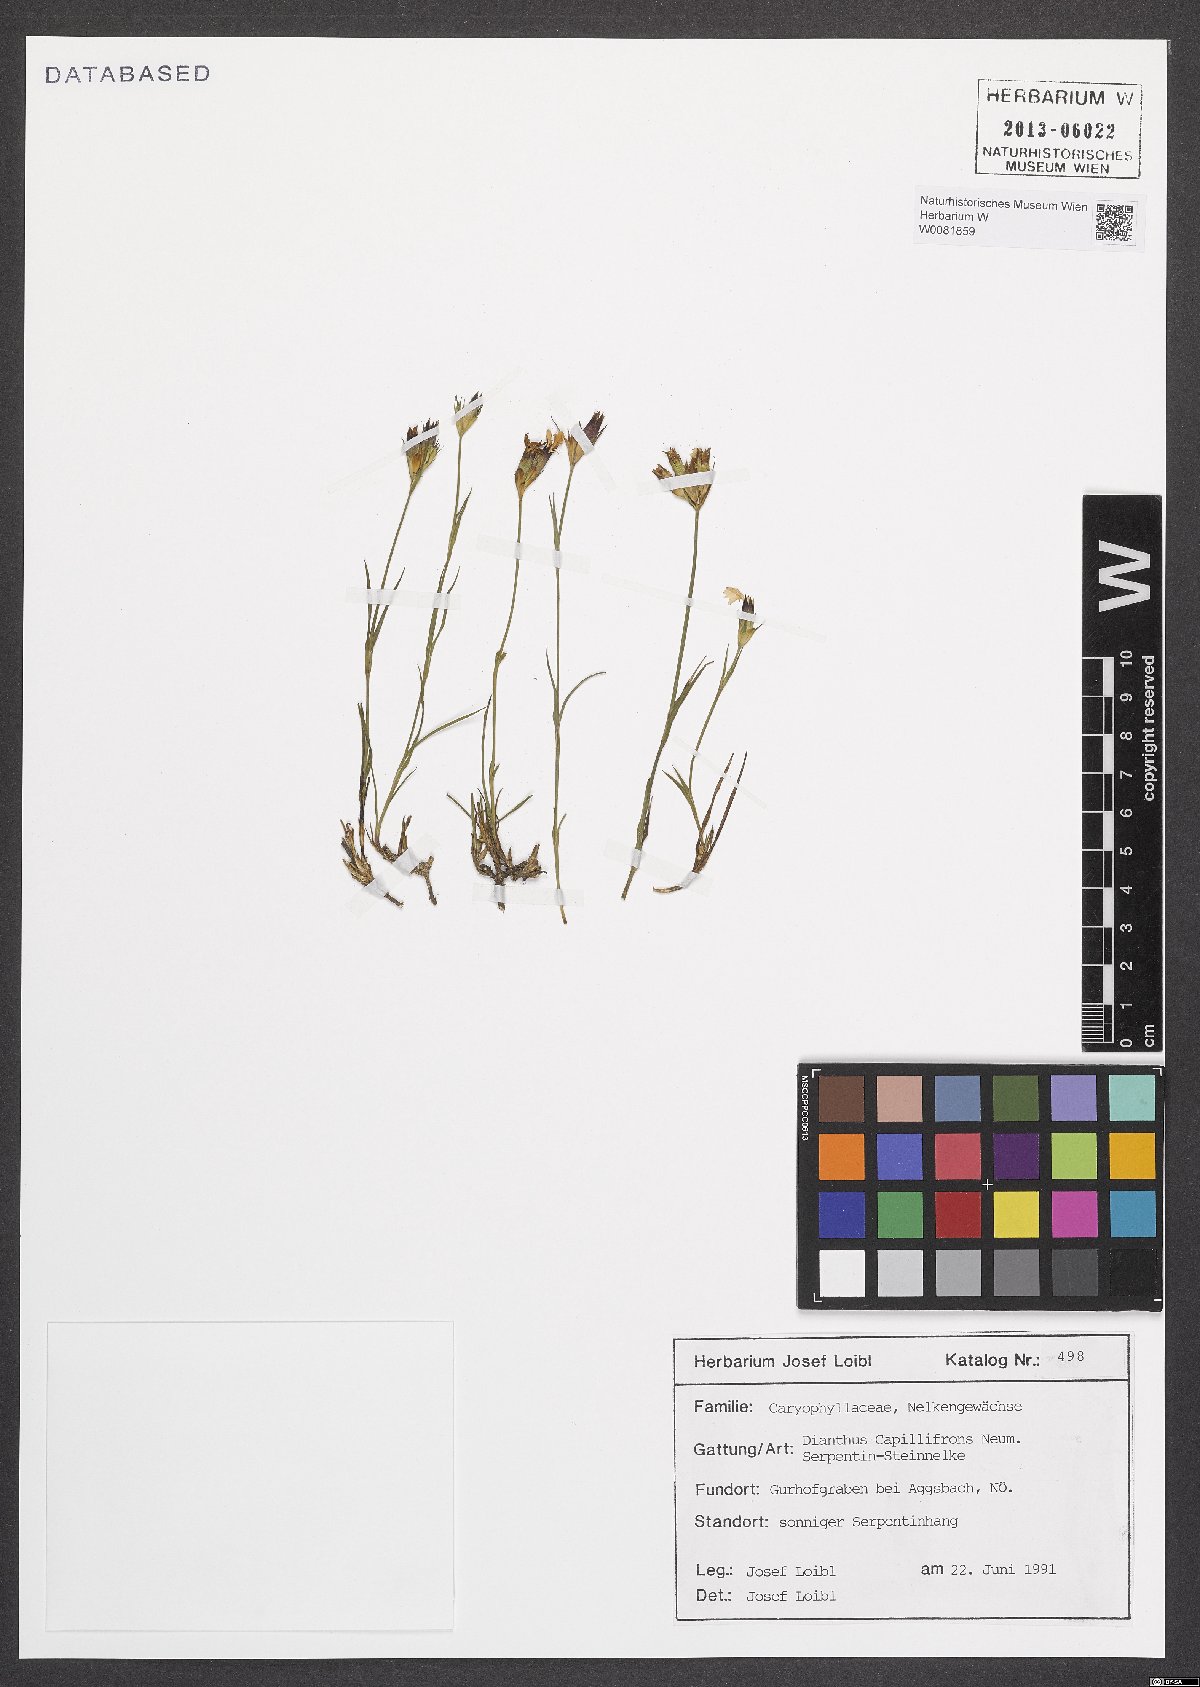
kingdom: Plantae
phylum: Tracheophyta
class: Magnoliopsida
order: Caryophyllales
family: Caryophyllaceae
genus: Dianthus
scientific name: Dianthus carthusianorum
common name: Carthusian pink
